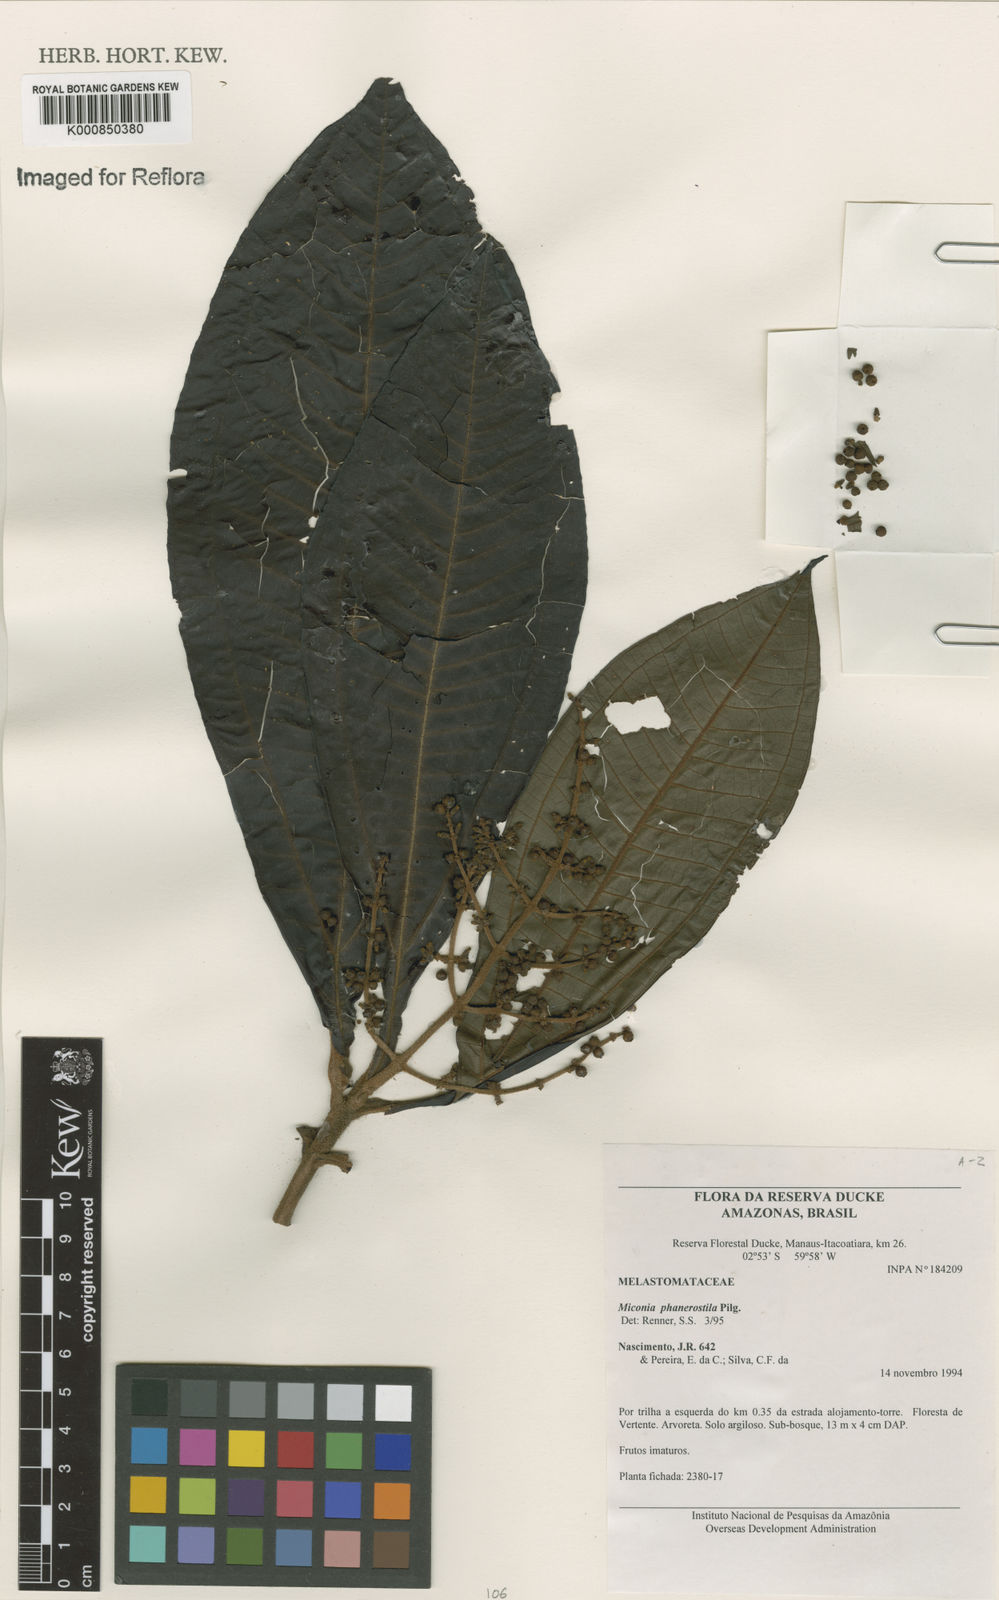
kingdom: Plantae
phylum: Tracheophyta
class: Magnoliopsida
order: Myrtales
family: Melastomataceae
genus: Miconia
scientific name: Miconia phanerostila
